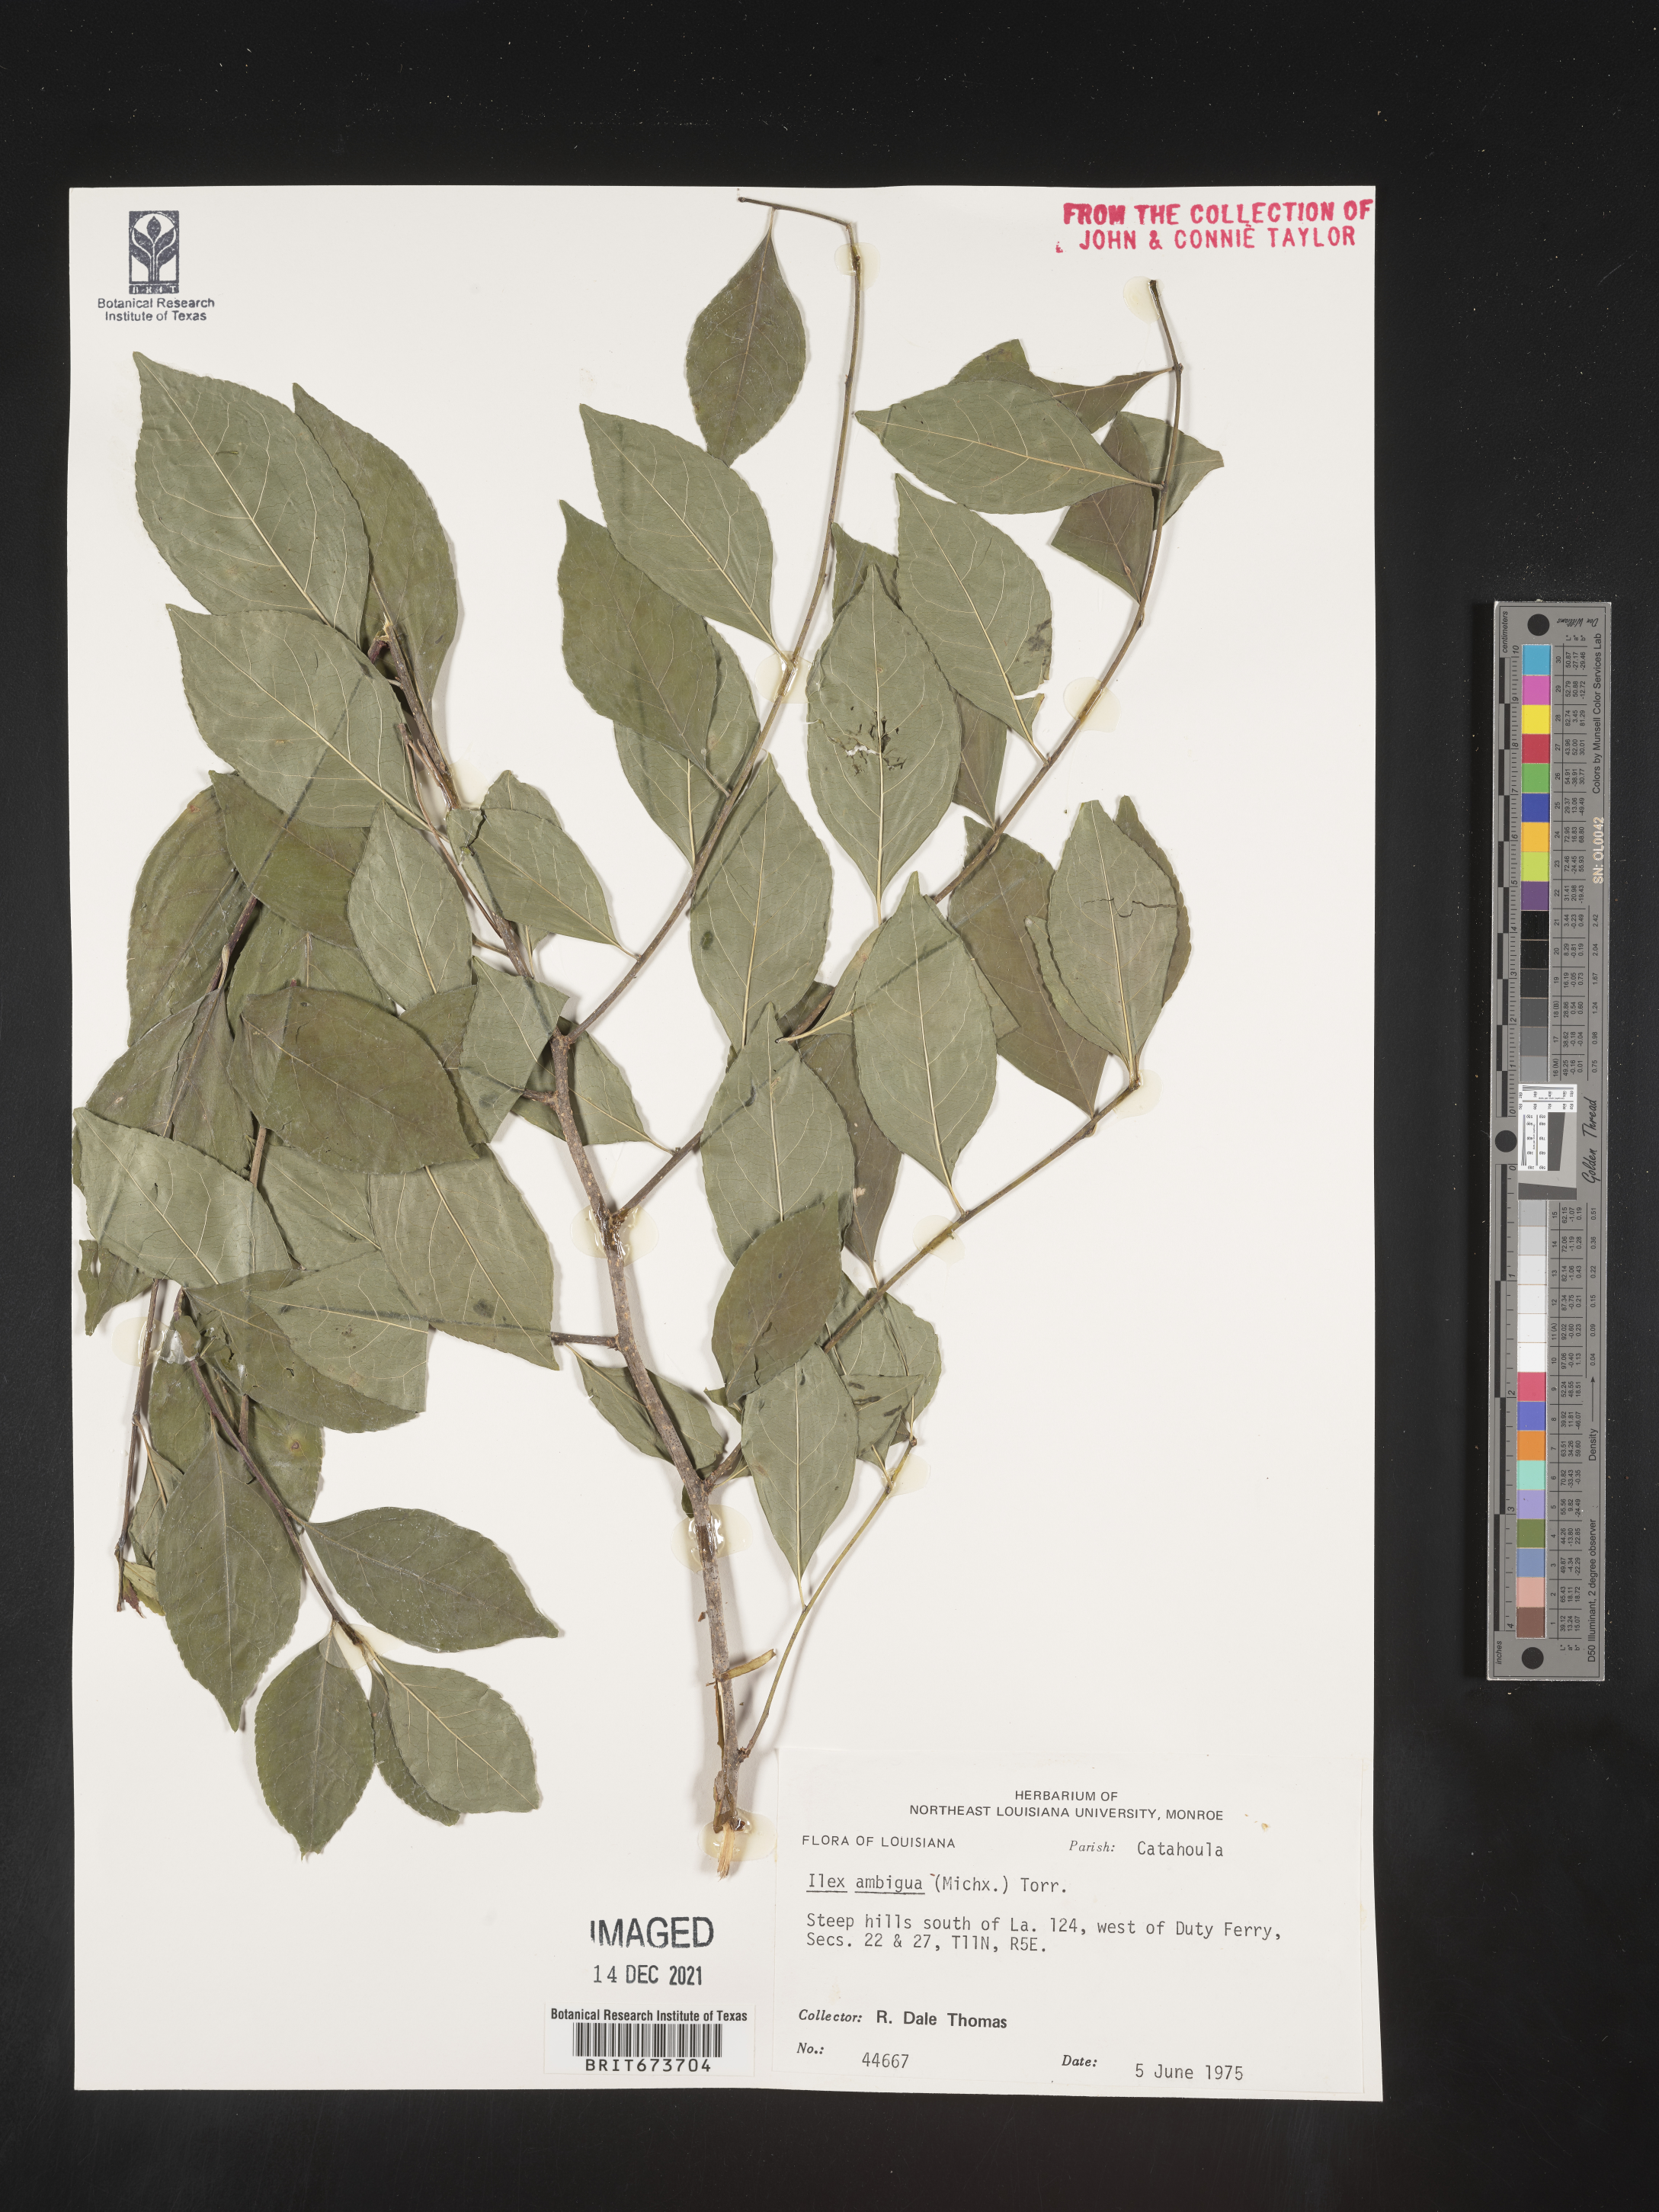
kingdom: Plantae
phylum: Tracheophyta
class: Magnoliopsida
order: Aquifoliales
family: Aquifoliaceae
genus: Ilex
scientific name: Ilex ambigua
